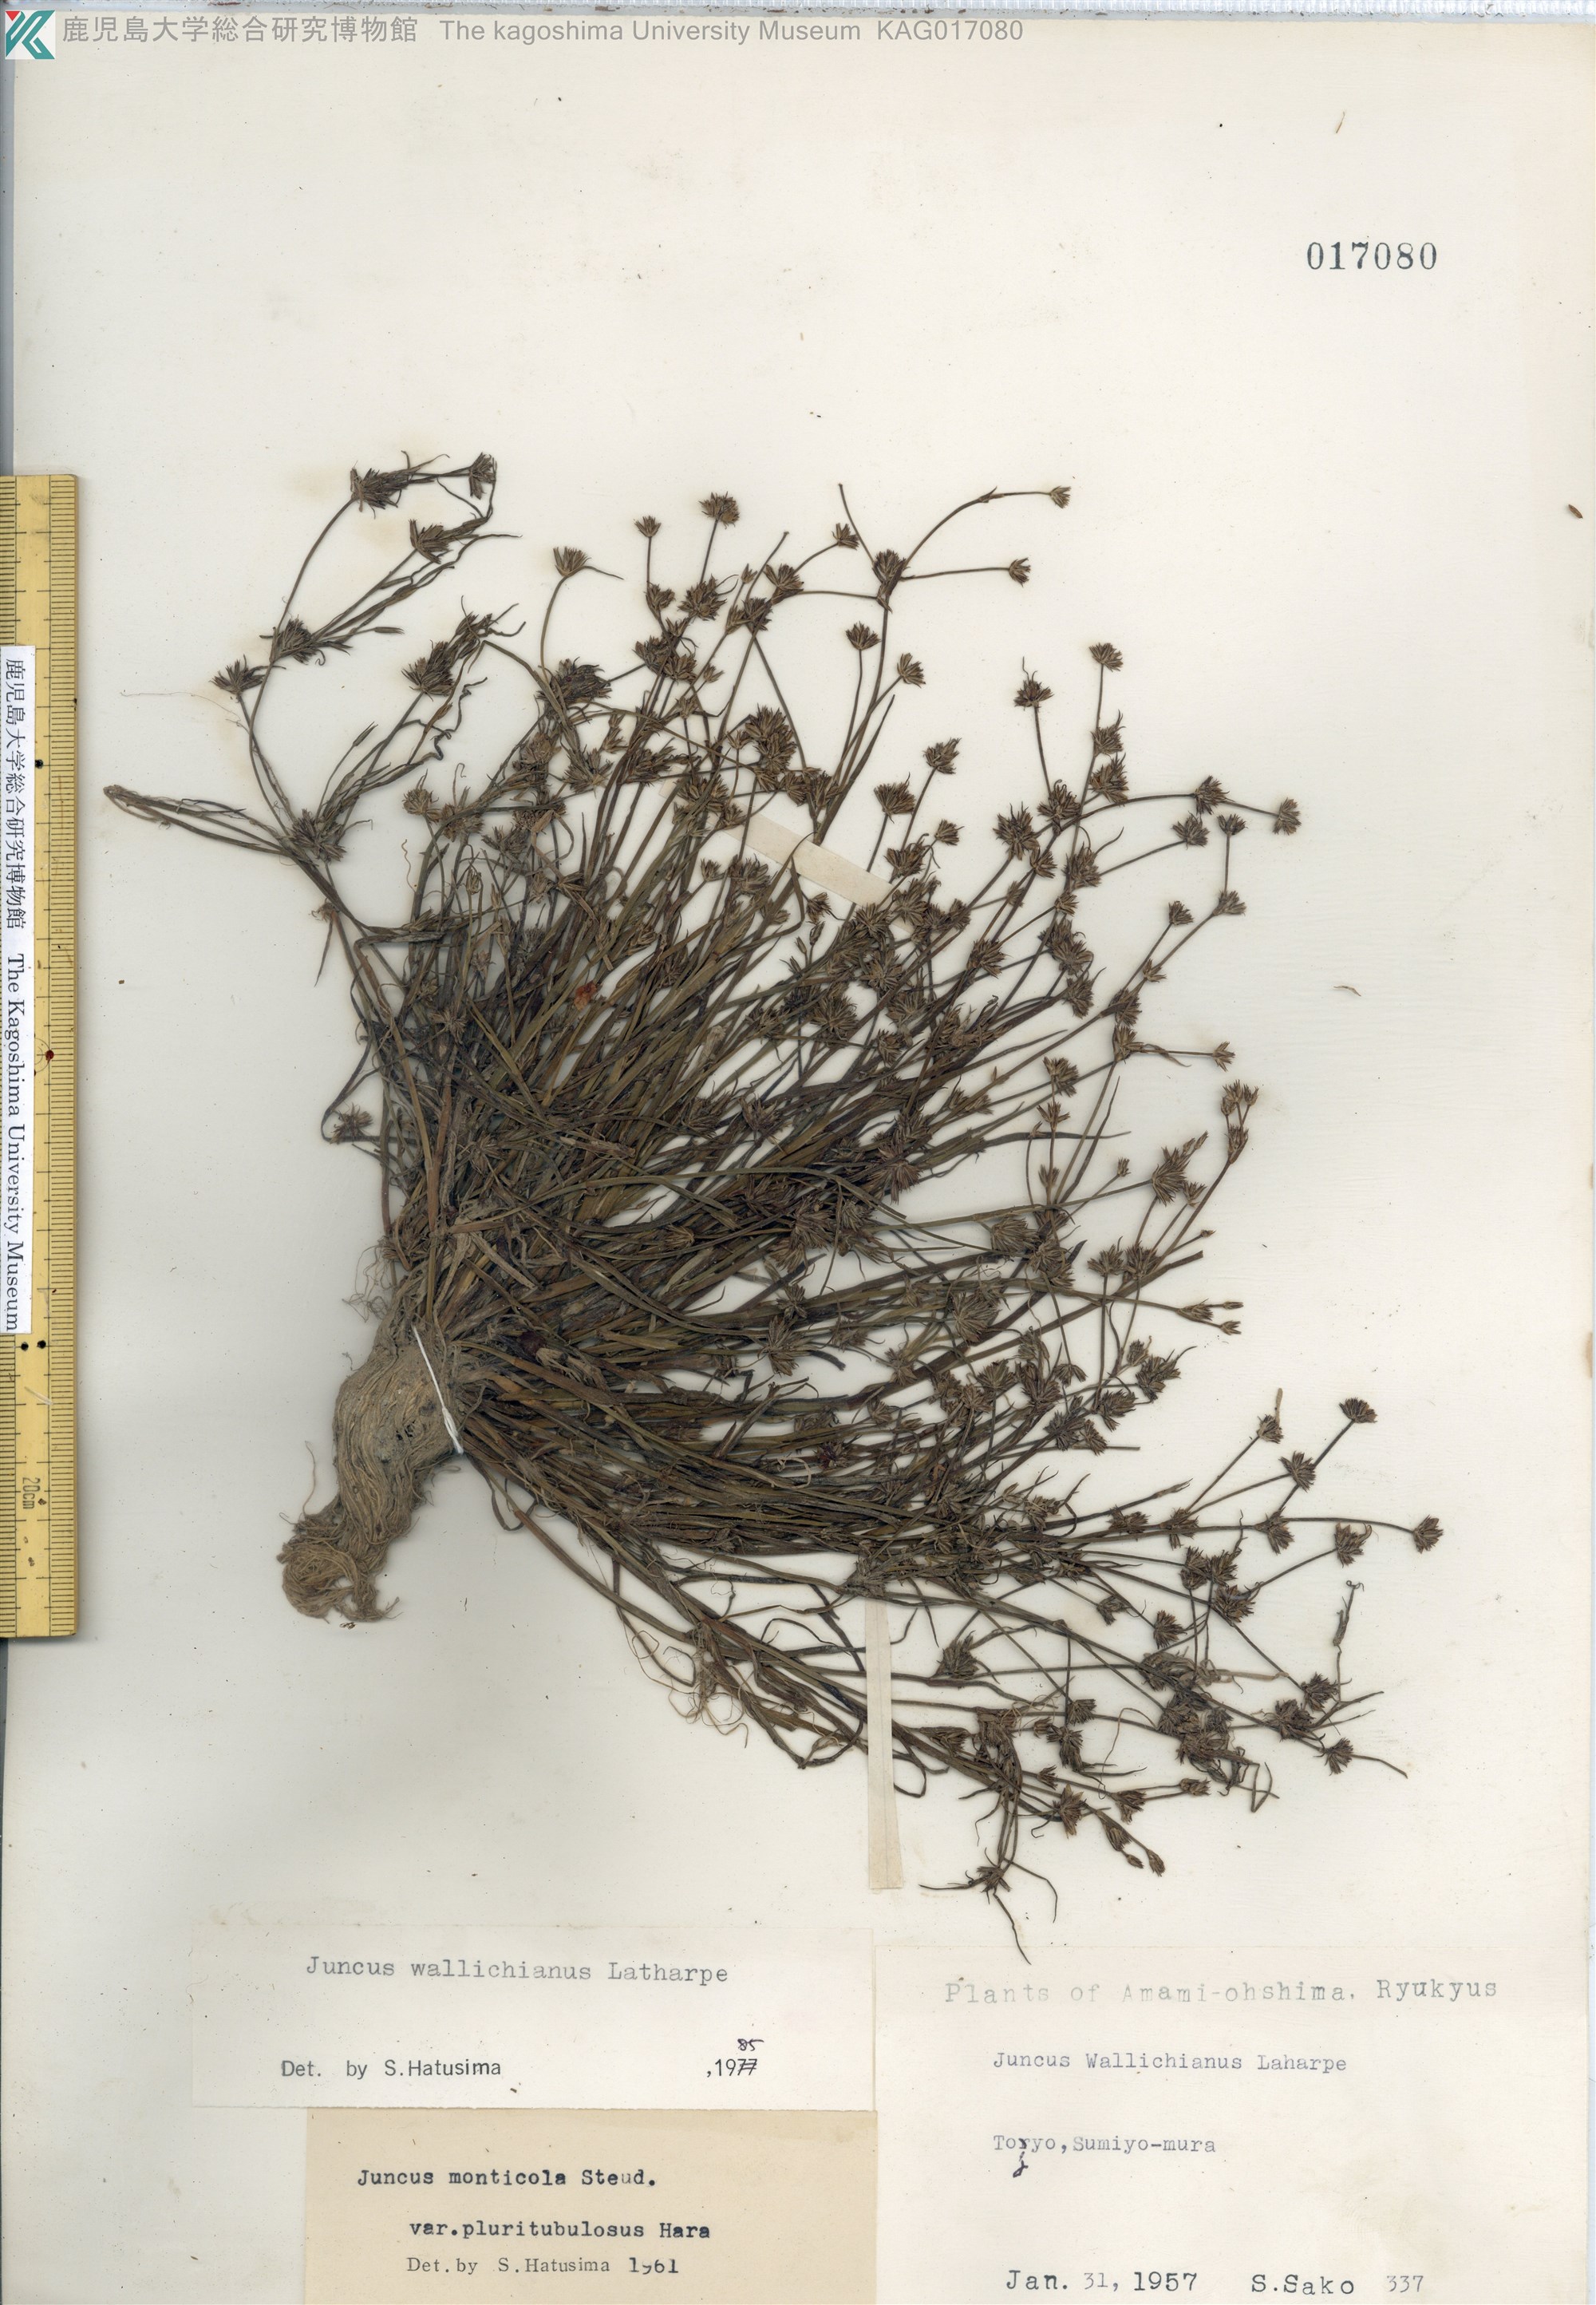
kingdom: Plantae
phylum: Tracheophyta
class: Liliopsida
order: Poales
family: Juncaceae
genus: Juncus
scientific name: Juncus prismatocarpus
